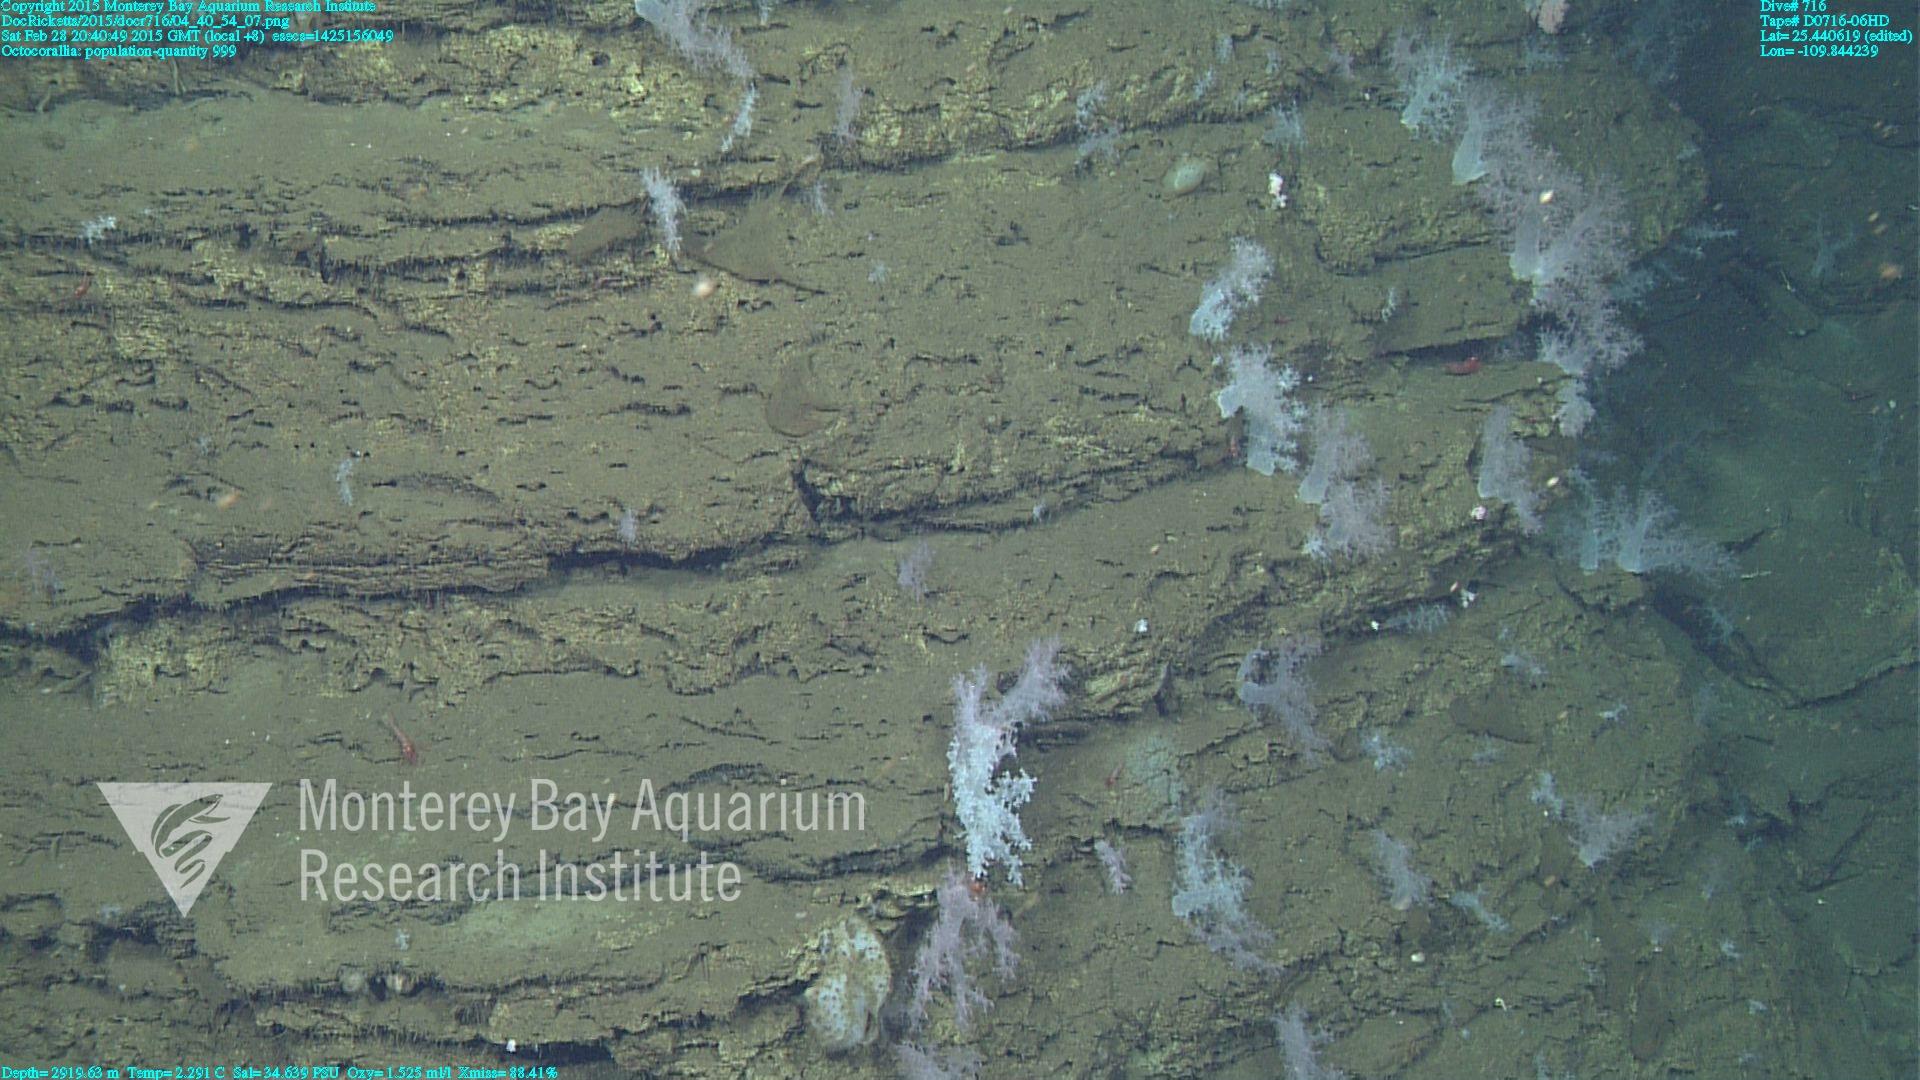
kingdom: Animalia
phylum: Cnidaria
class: Anthozoa
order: Malacalcyonacea
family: Alcyoniidae
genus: Gersemia
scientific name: Gersemia juliepackardae
